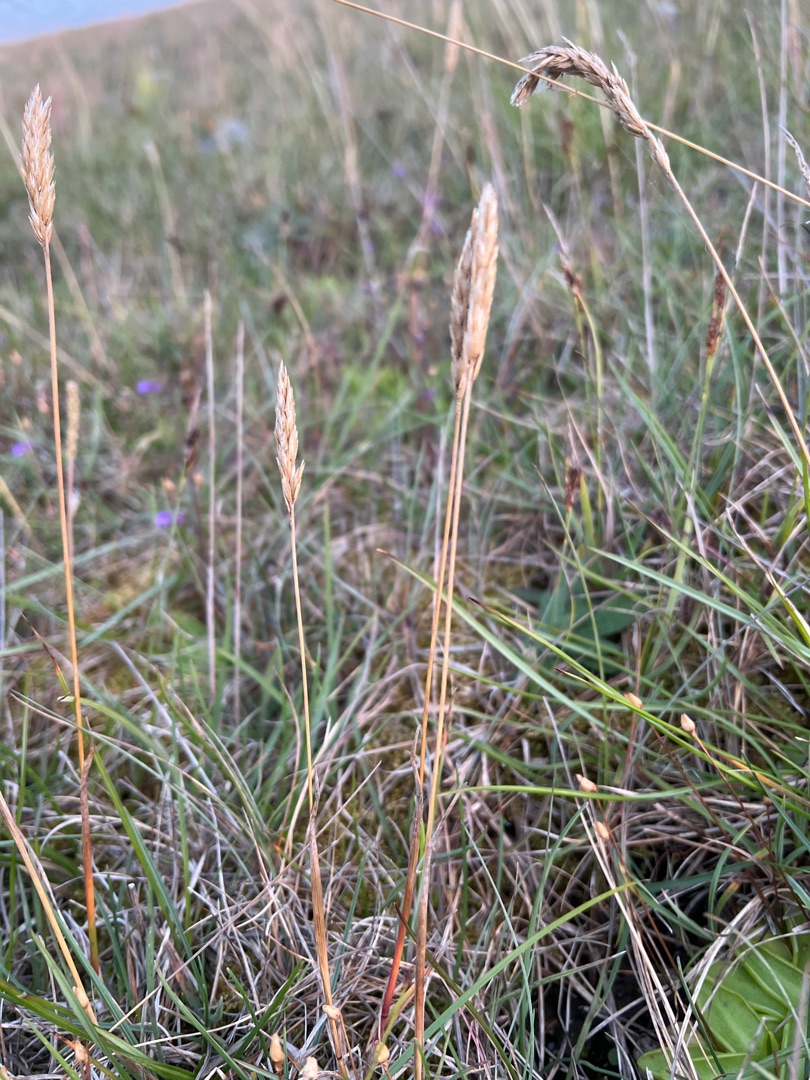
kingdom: Plantae
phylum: Tracheophyta
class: Liliopsida
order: Poales
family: Poaceae
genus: Koeleria
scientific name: Koeleria pyramidata
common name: Dansk kambunke
